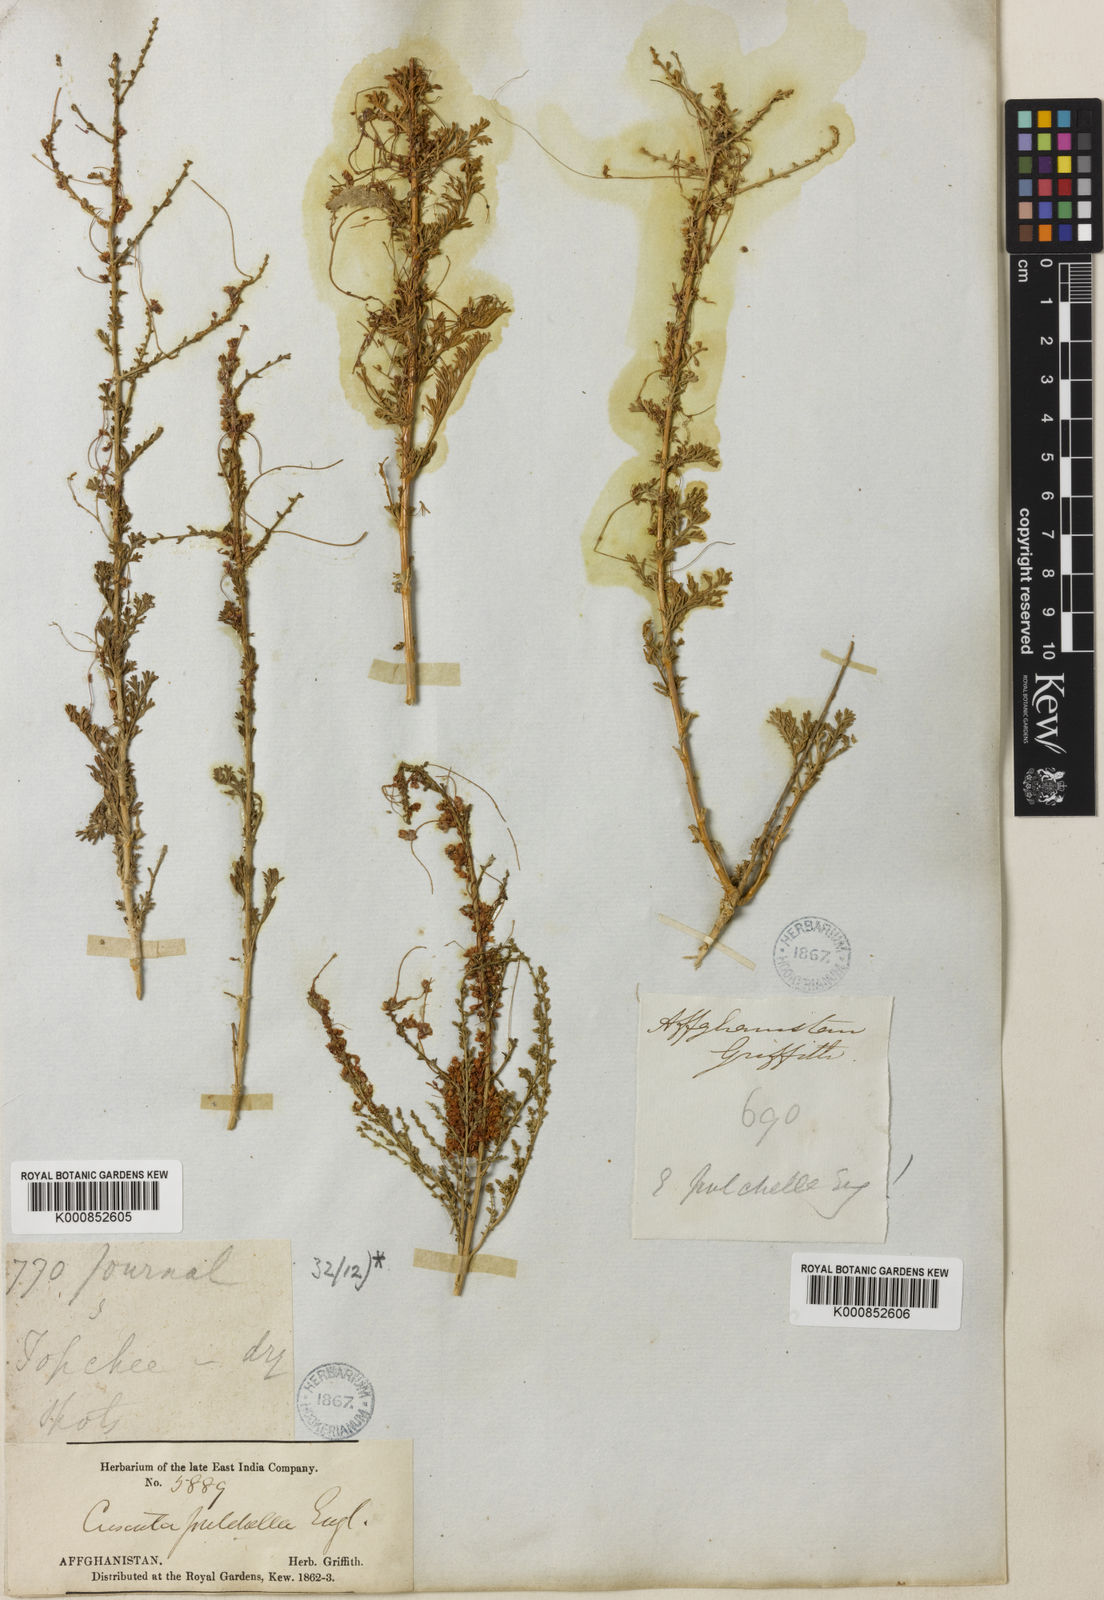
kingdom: Plantae
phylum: Tracheophyta
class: Magnoliopsida
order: Solanales
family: Convolvulaceae
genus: Cuscuta
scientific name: Cuscuta pulchella
